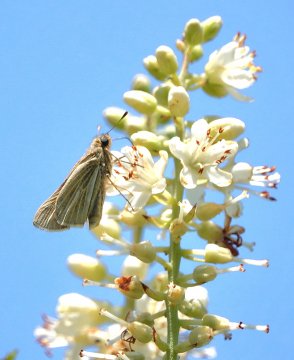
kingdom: Animalia
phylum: Arthropoda
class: Insecta
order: Lepidoptera
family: Hesperiidae
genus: Panoquina
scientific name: Panoquina panoquin
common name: Salt Marsh Skipper
